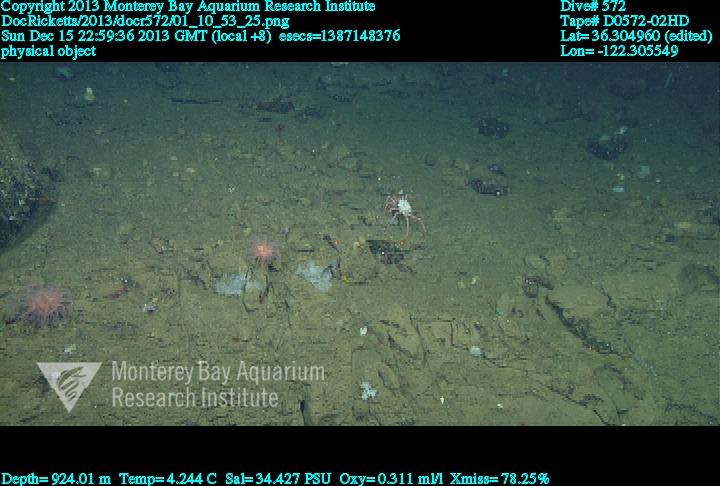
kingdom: Animalia
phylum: Cnidaria
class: Anthozoa
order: Scleralcyonacea
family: Coralliidae
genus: Heteropolypus
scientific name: Heteropolypus ritteri
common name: Ritter's soft coral
